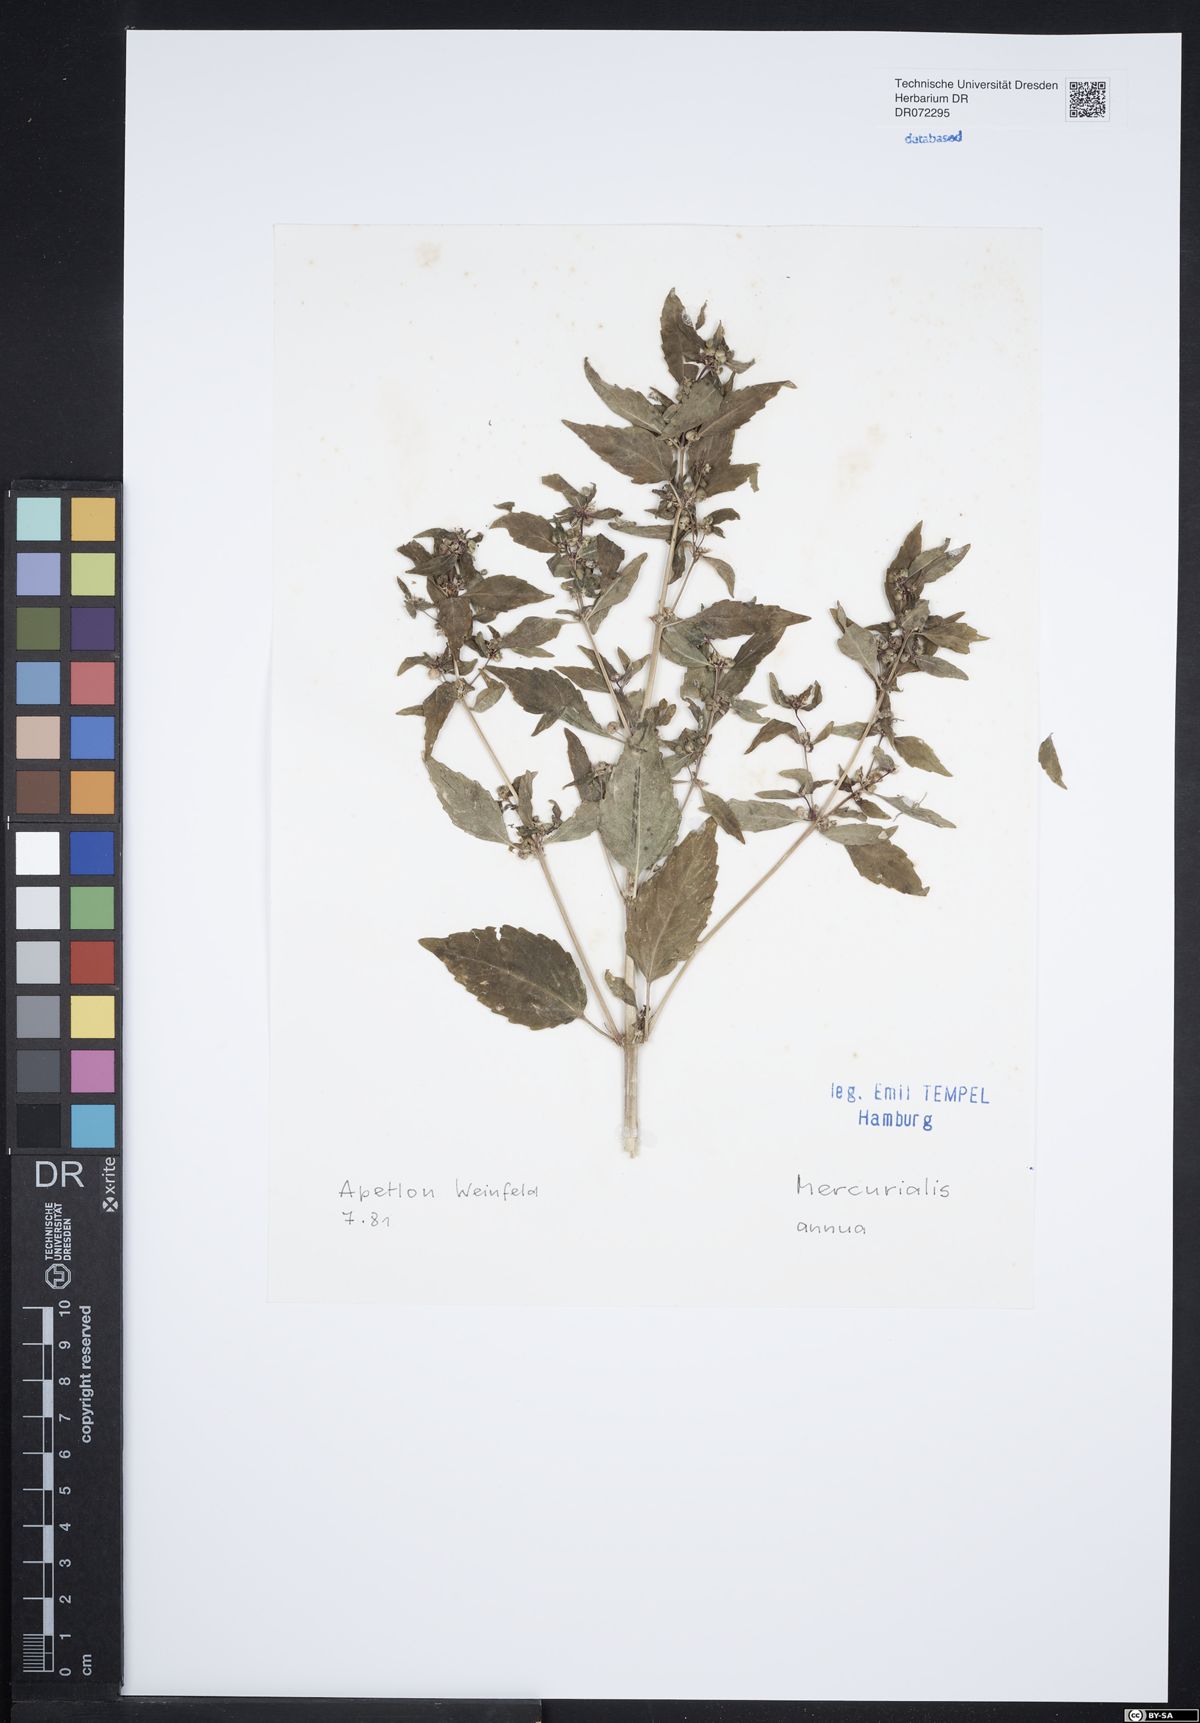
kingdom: Plantae
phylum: Tracheophyta
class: Magnoliopsida
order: Malpighiales
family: Euphorbiaceae
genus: Mercurialis
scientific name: Mercurialis annua
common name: Annual mercury
